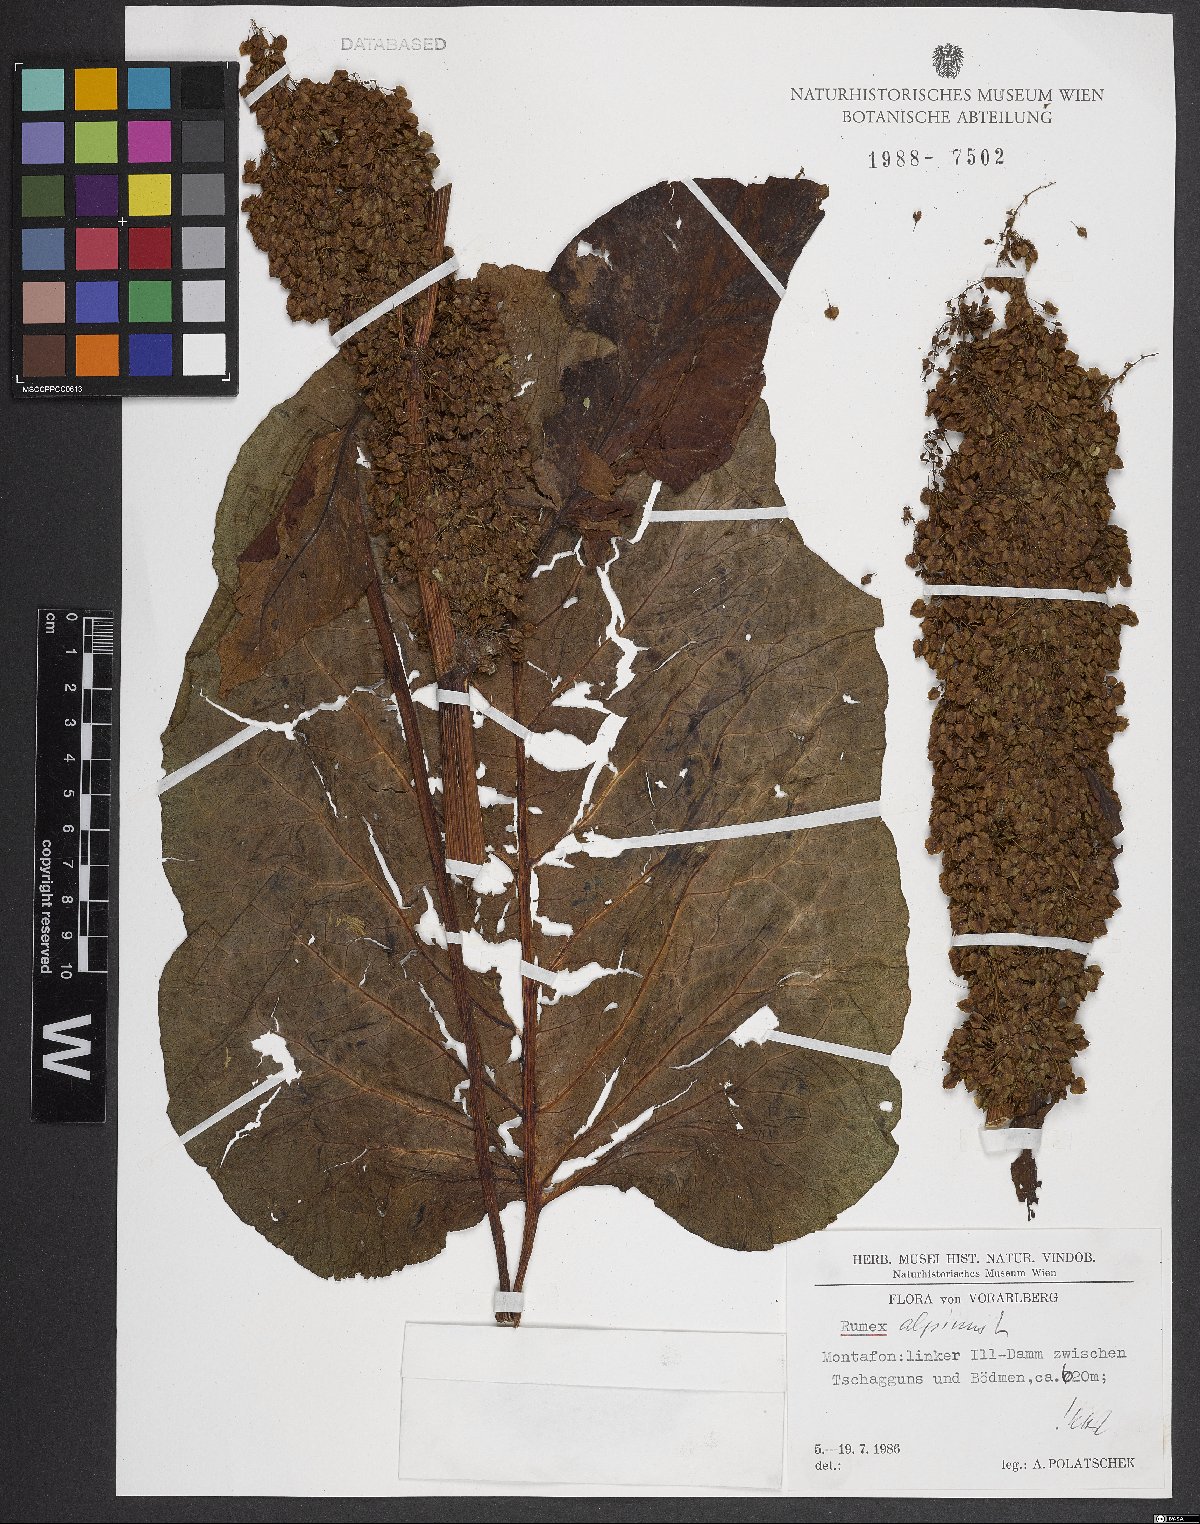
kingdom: Plantae
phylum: Tracheophyta
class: Magnoliopsida
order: Caryophyllales
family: Polygonaceae
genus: Rumex
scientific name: Rumex alpinus
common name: Alpine dock
